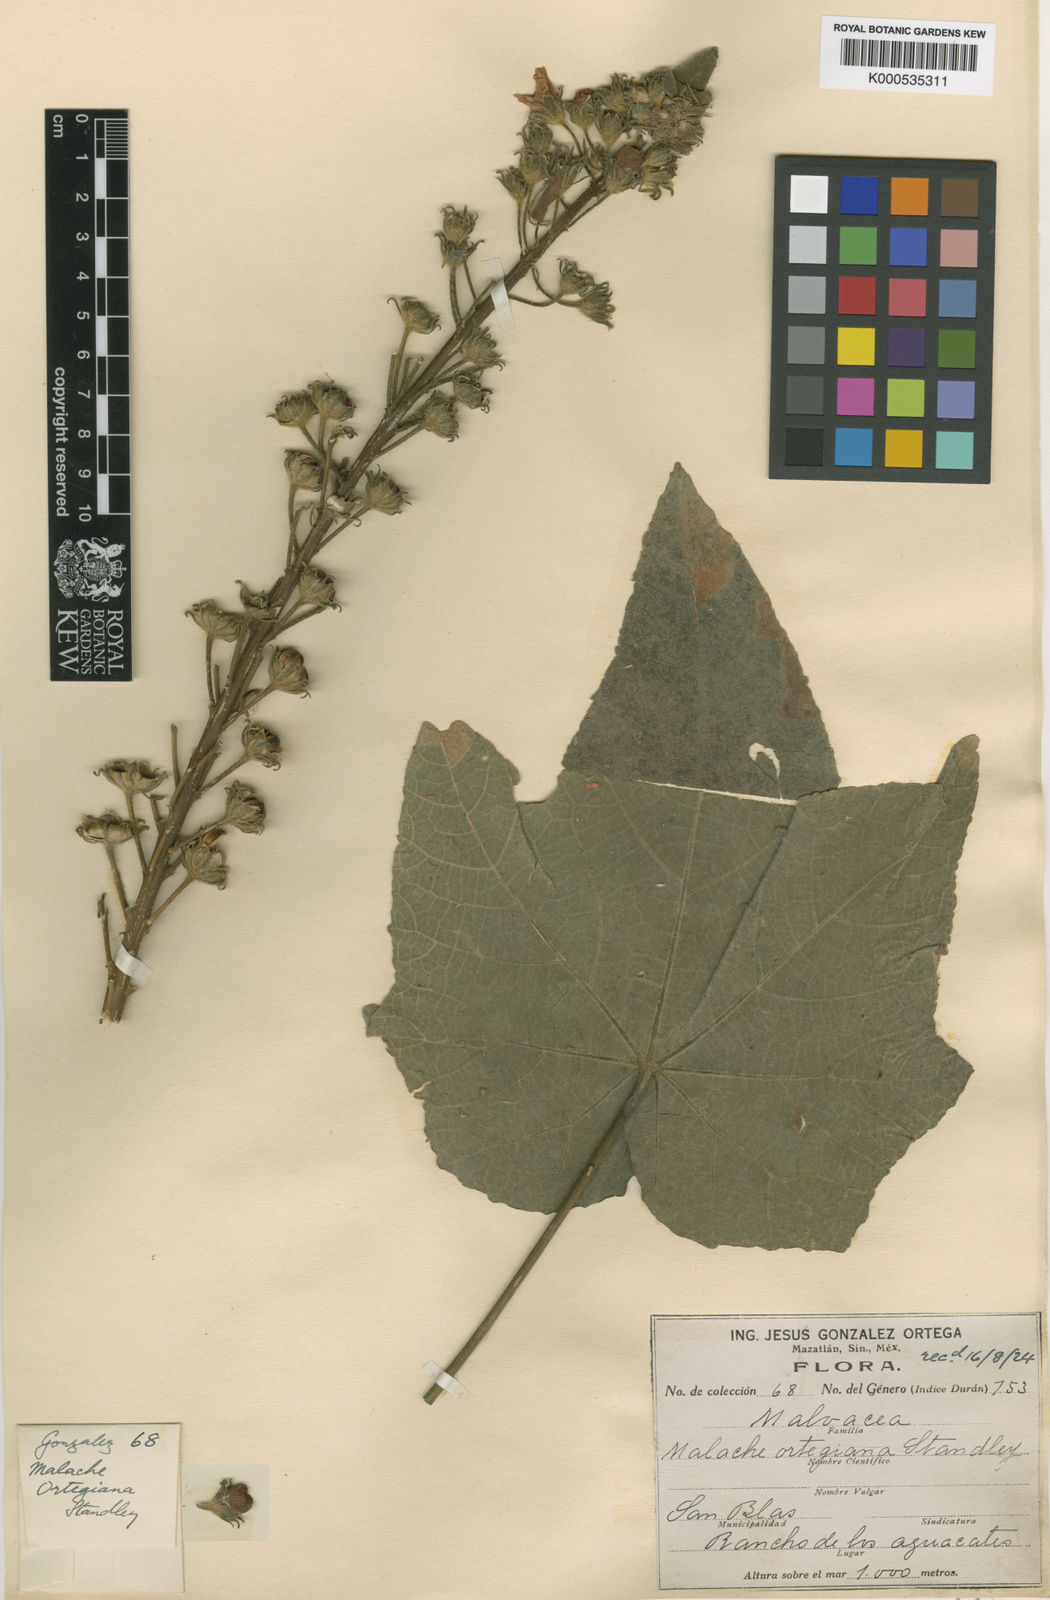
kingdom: Plantae
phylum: Tracheophyta
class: Magnoliopsida
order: Malvales
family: Malvaceae
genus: Pavonia
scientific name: Pavonia pleuranthera
